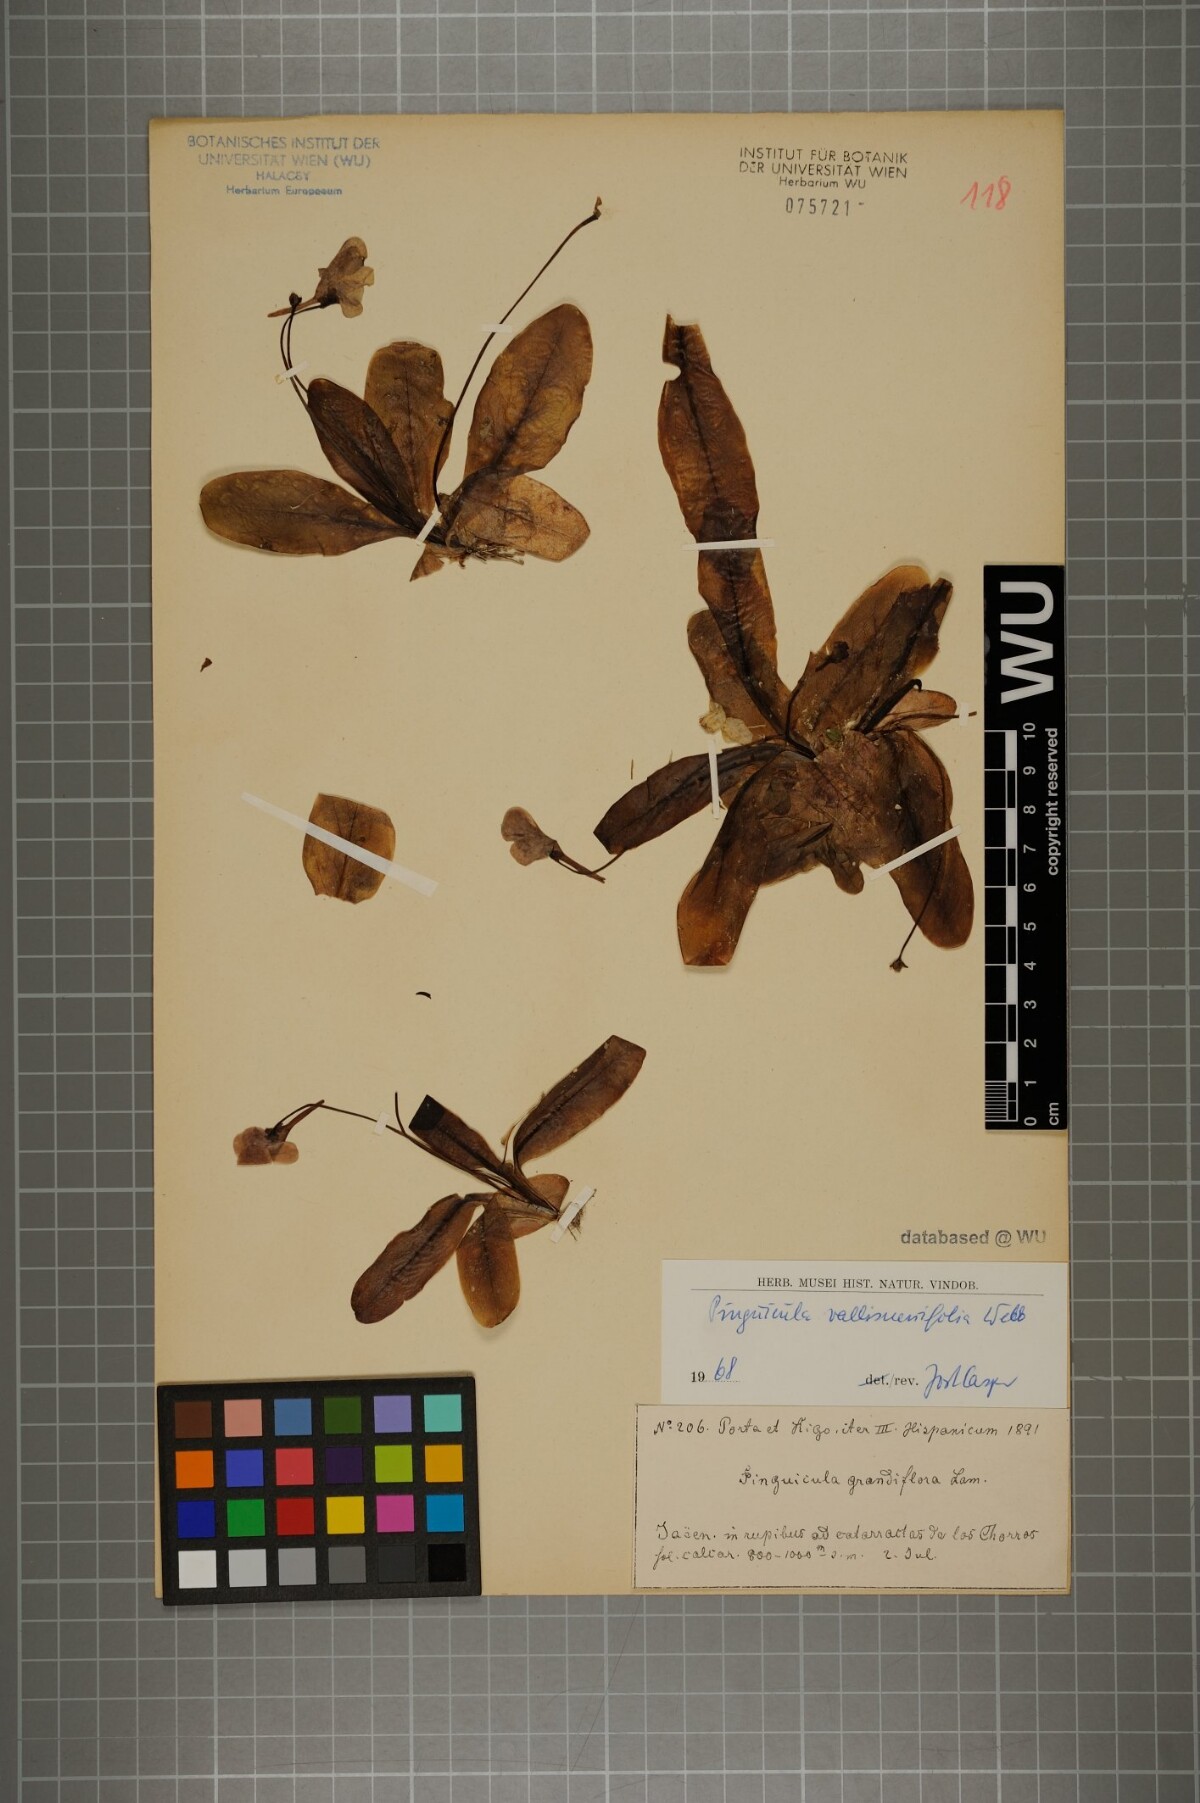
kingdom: Plantae
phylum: Tracheophyta
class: Magnoliopsida
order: Lamiales
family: Lentibulariaceae
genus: Pinguicula
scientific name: Pinguicula vallisneriifolia
